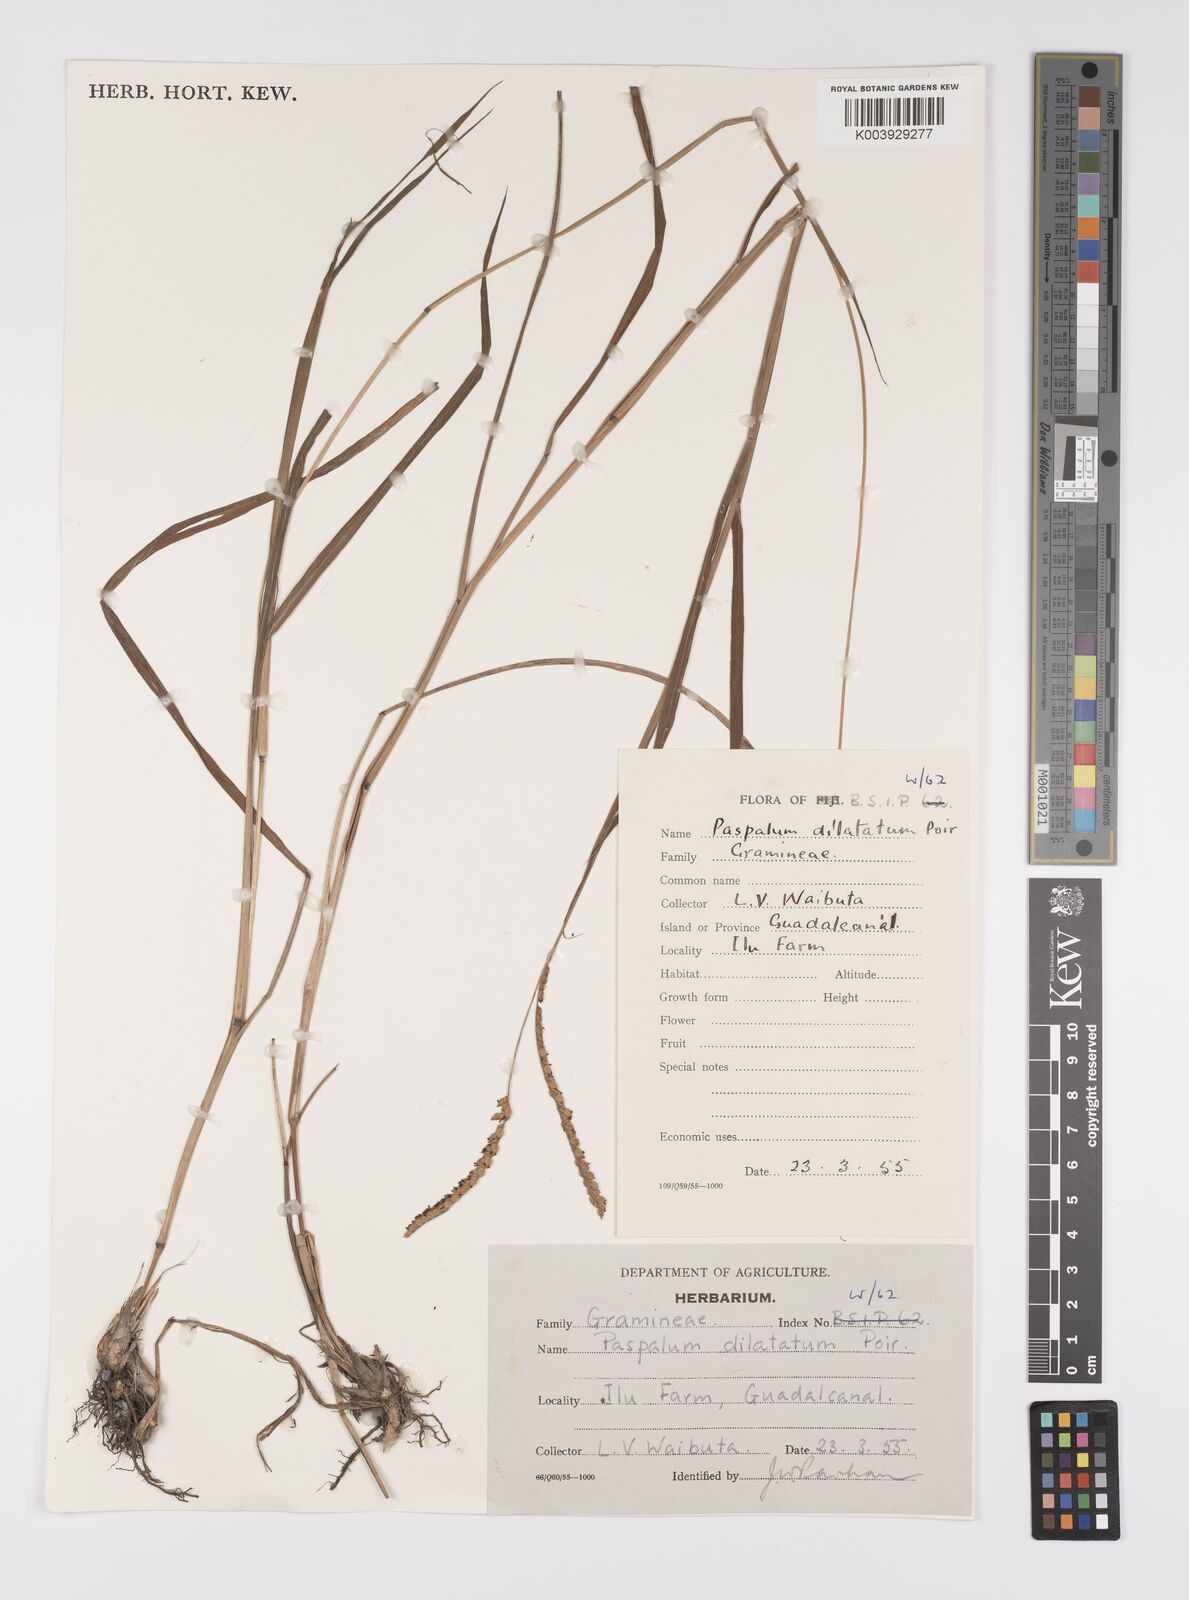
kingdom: Plantae
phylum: Tracheophyta
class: Liliopsida
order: Poales
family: Poaceae
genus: Paspalum
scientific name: Paspalum dilatatum
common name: Dallisgrass
